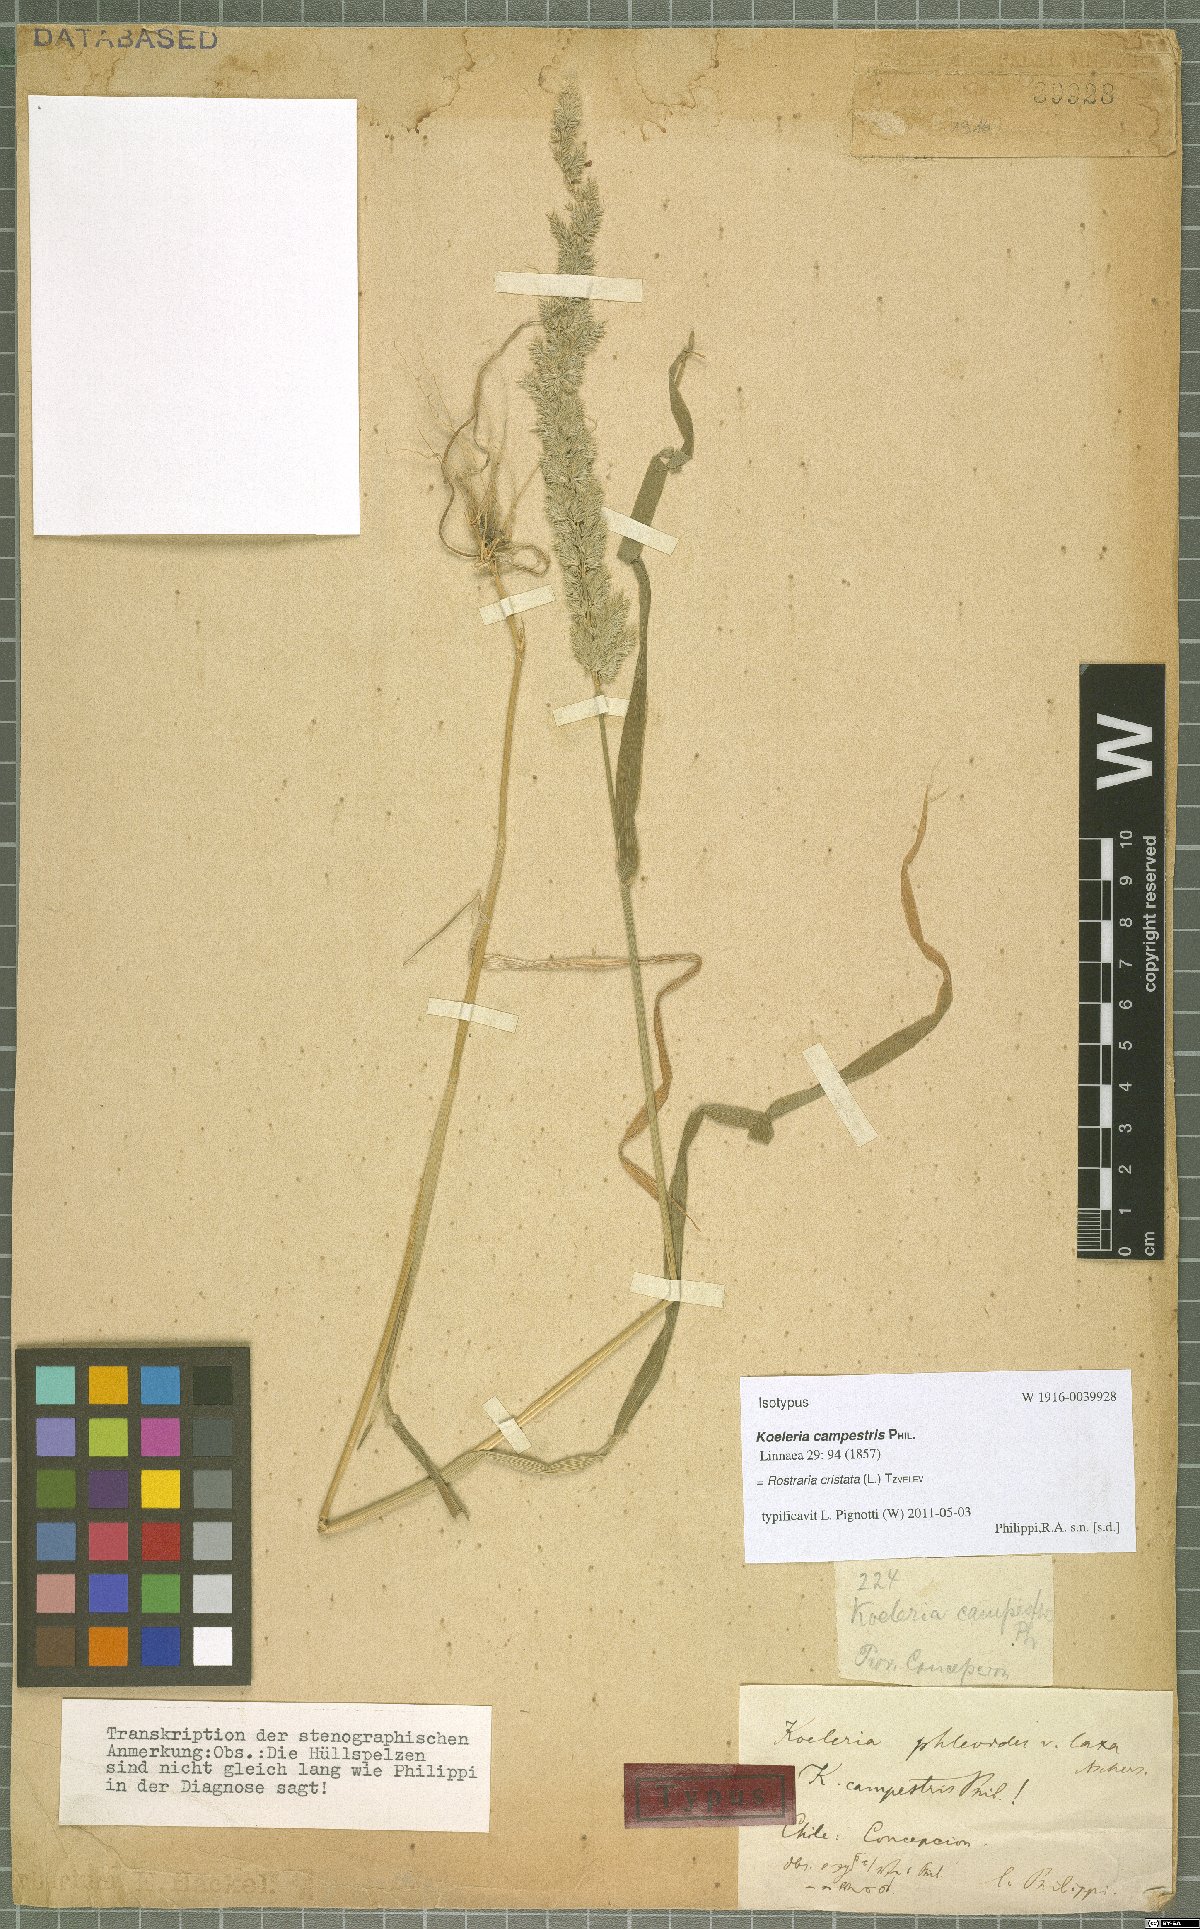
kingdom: Plantae
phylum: Tracheophyta
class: Liliopsida
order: Poales
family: Poaceae
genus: Rostraria
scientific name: Rostraria cristata
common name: Mediterranean hair-grass
